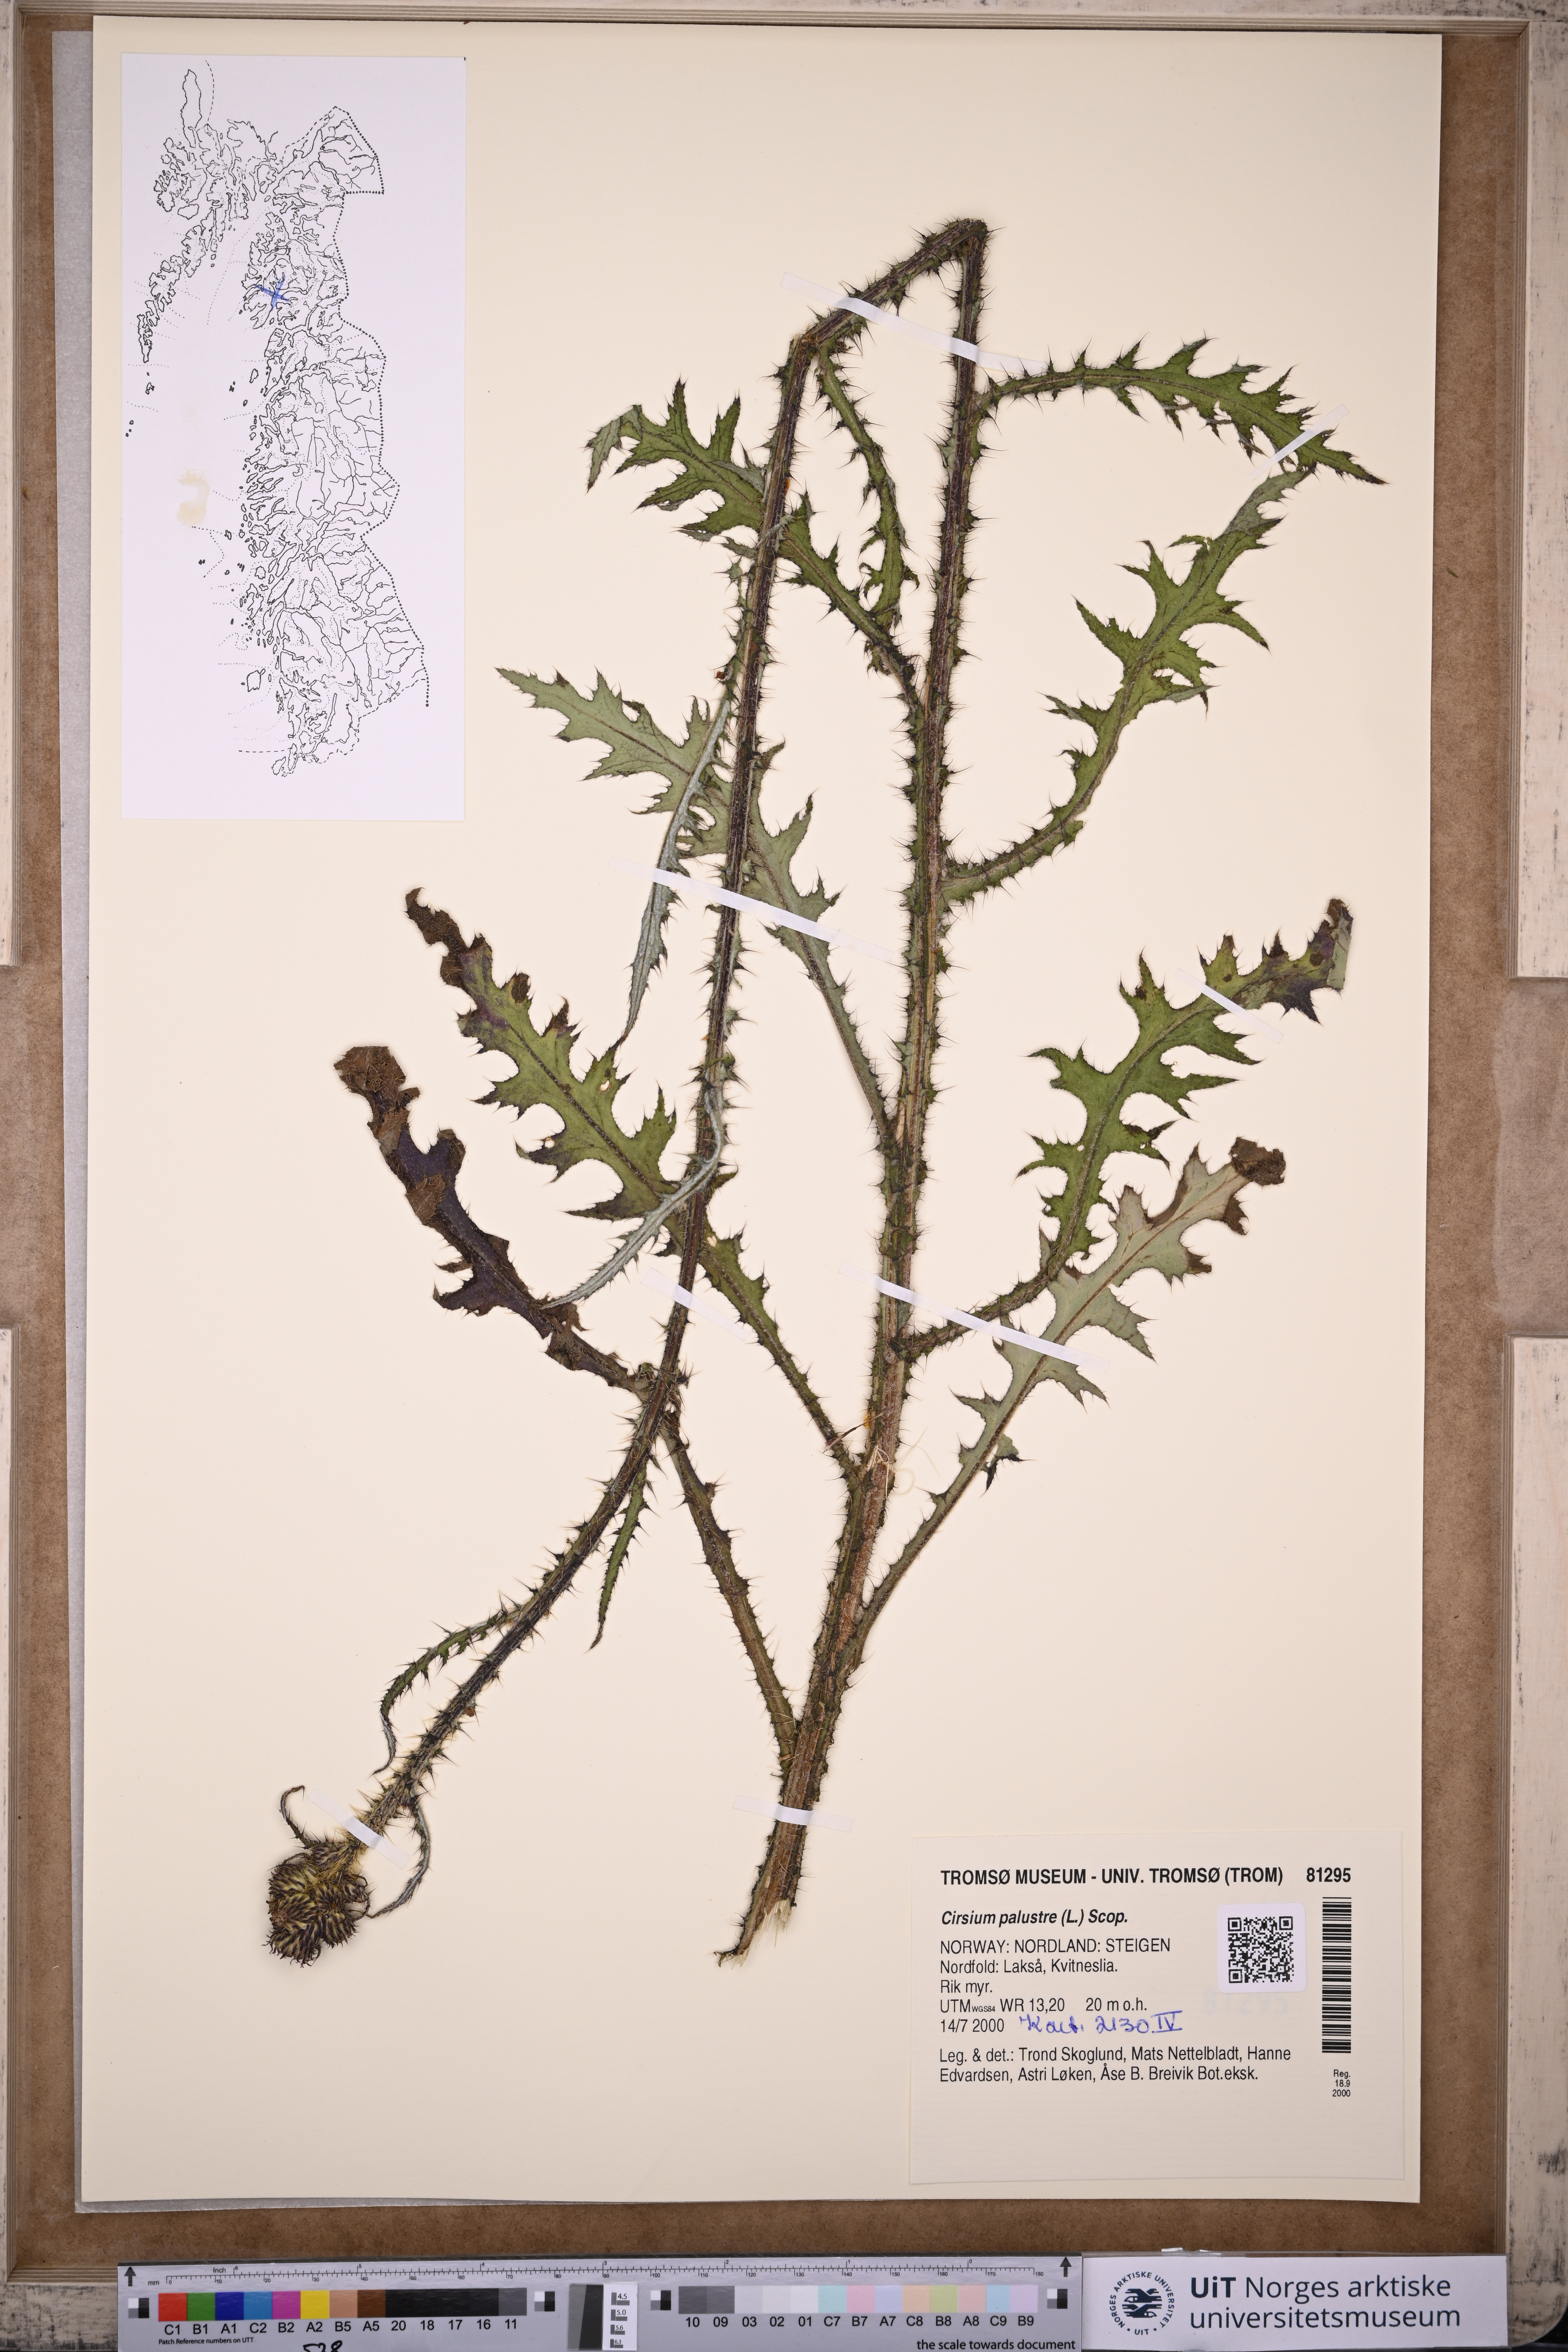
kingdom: Plantae
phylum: Tracheophyta
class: Magnoliopsida
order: Asterales
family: Asteraceae
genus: Cirsium
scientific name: Cirsium palustre
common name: Marsh thistle
